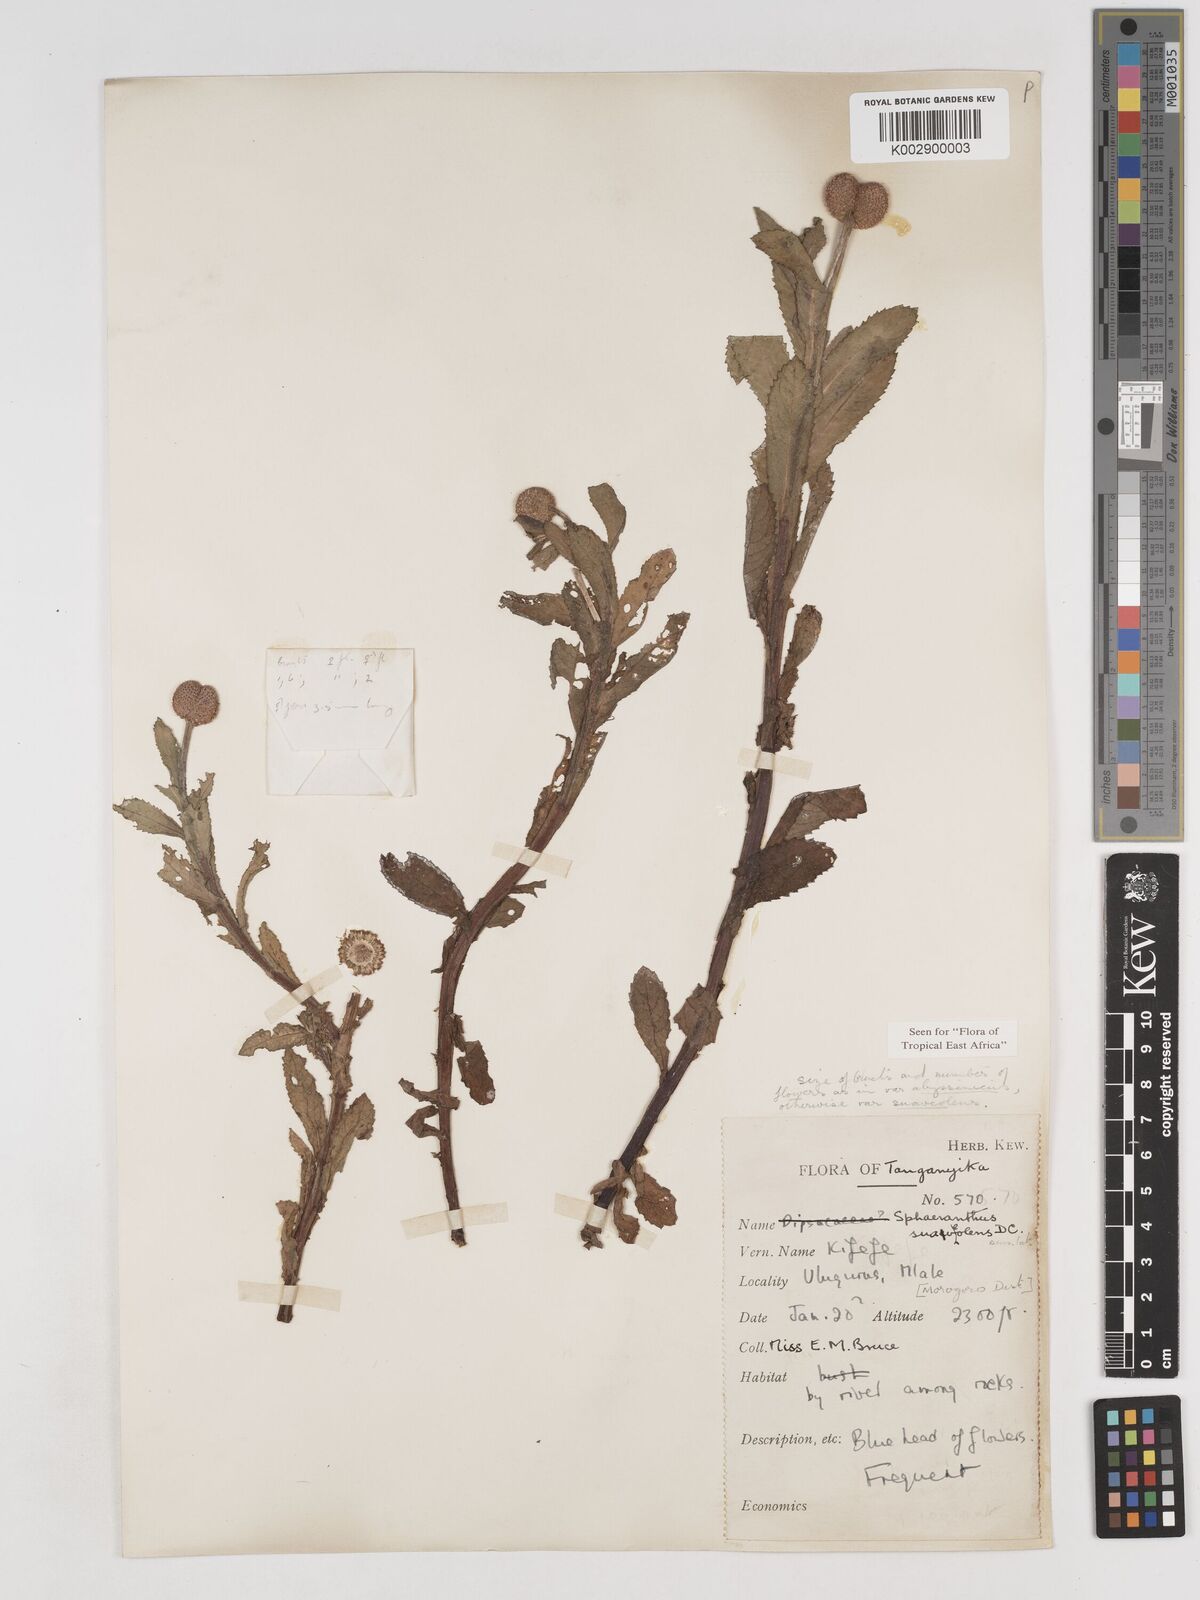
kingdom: Plantae
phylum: Tracheophyta
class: Magnoliopsida
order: Asterales
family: Asteraceae
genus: Sphaeranthus
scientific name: Sphaeranthus suaveolens
